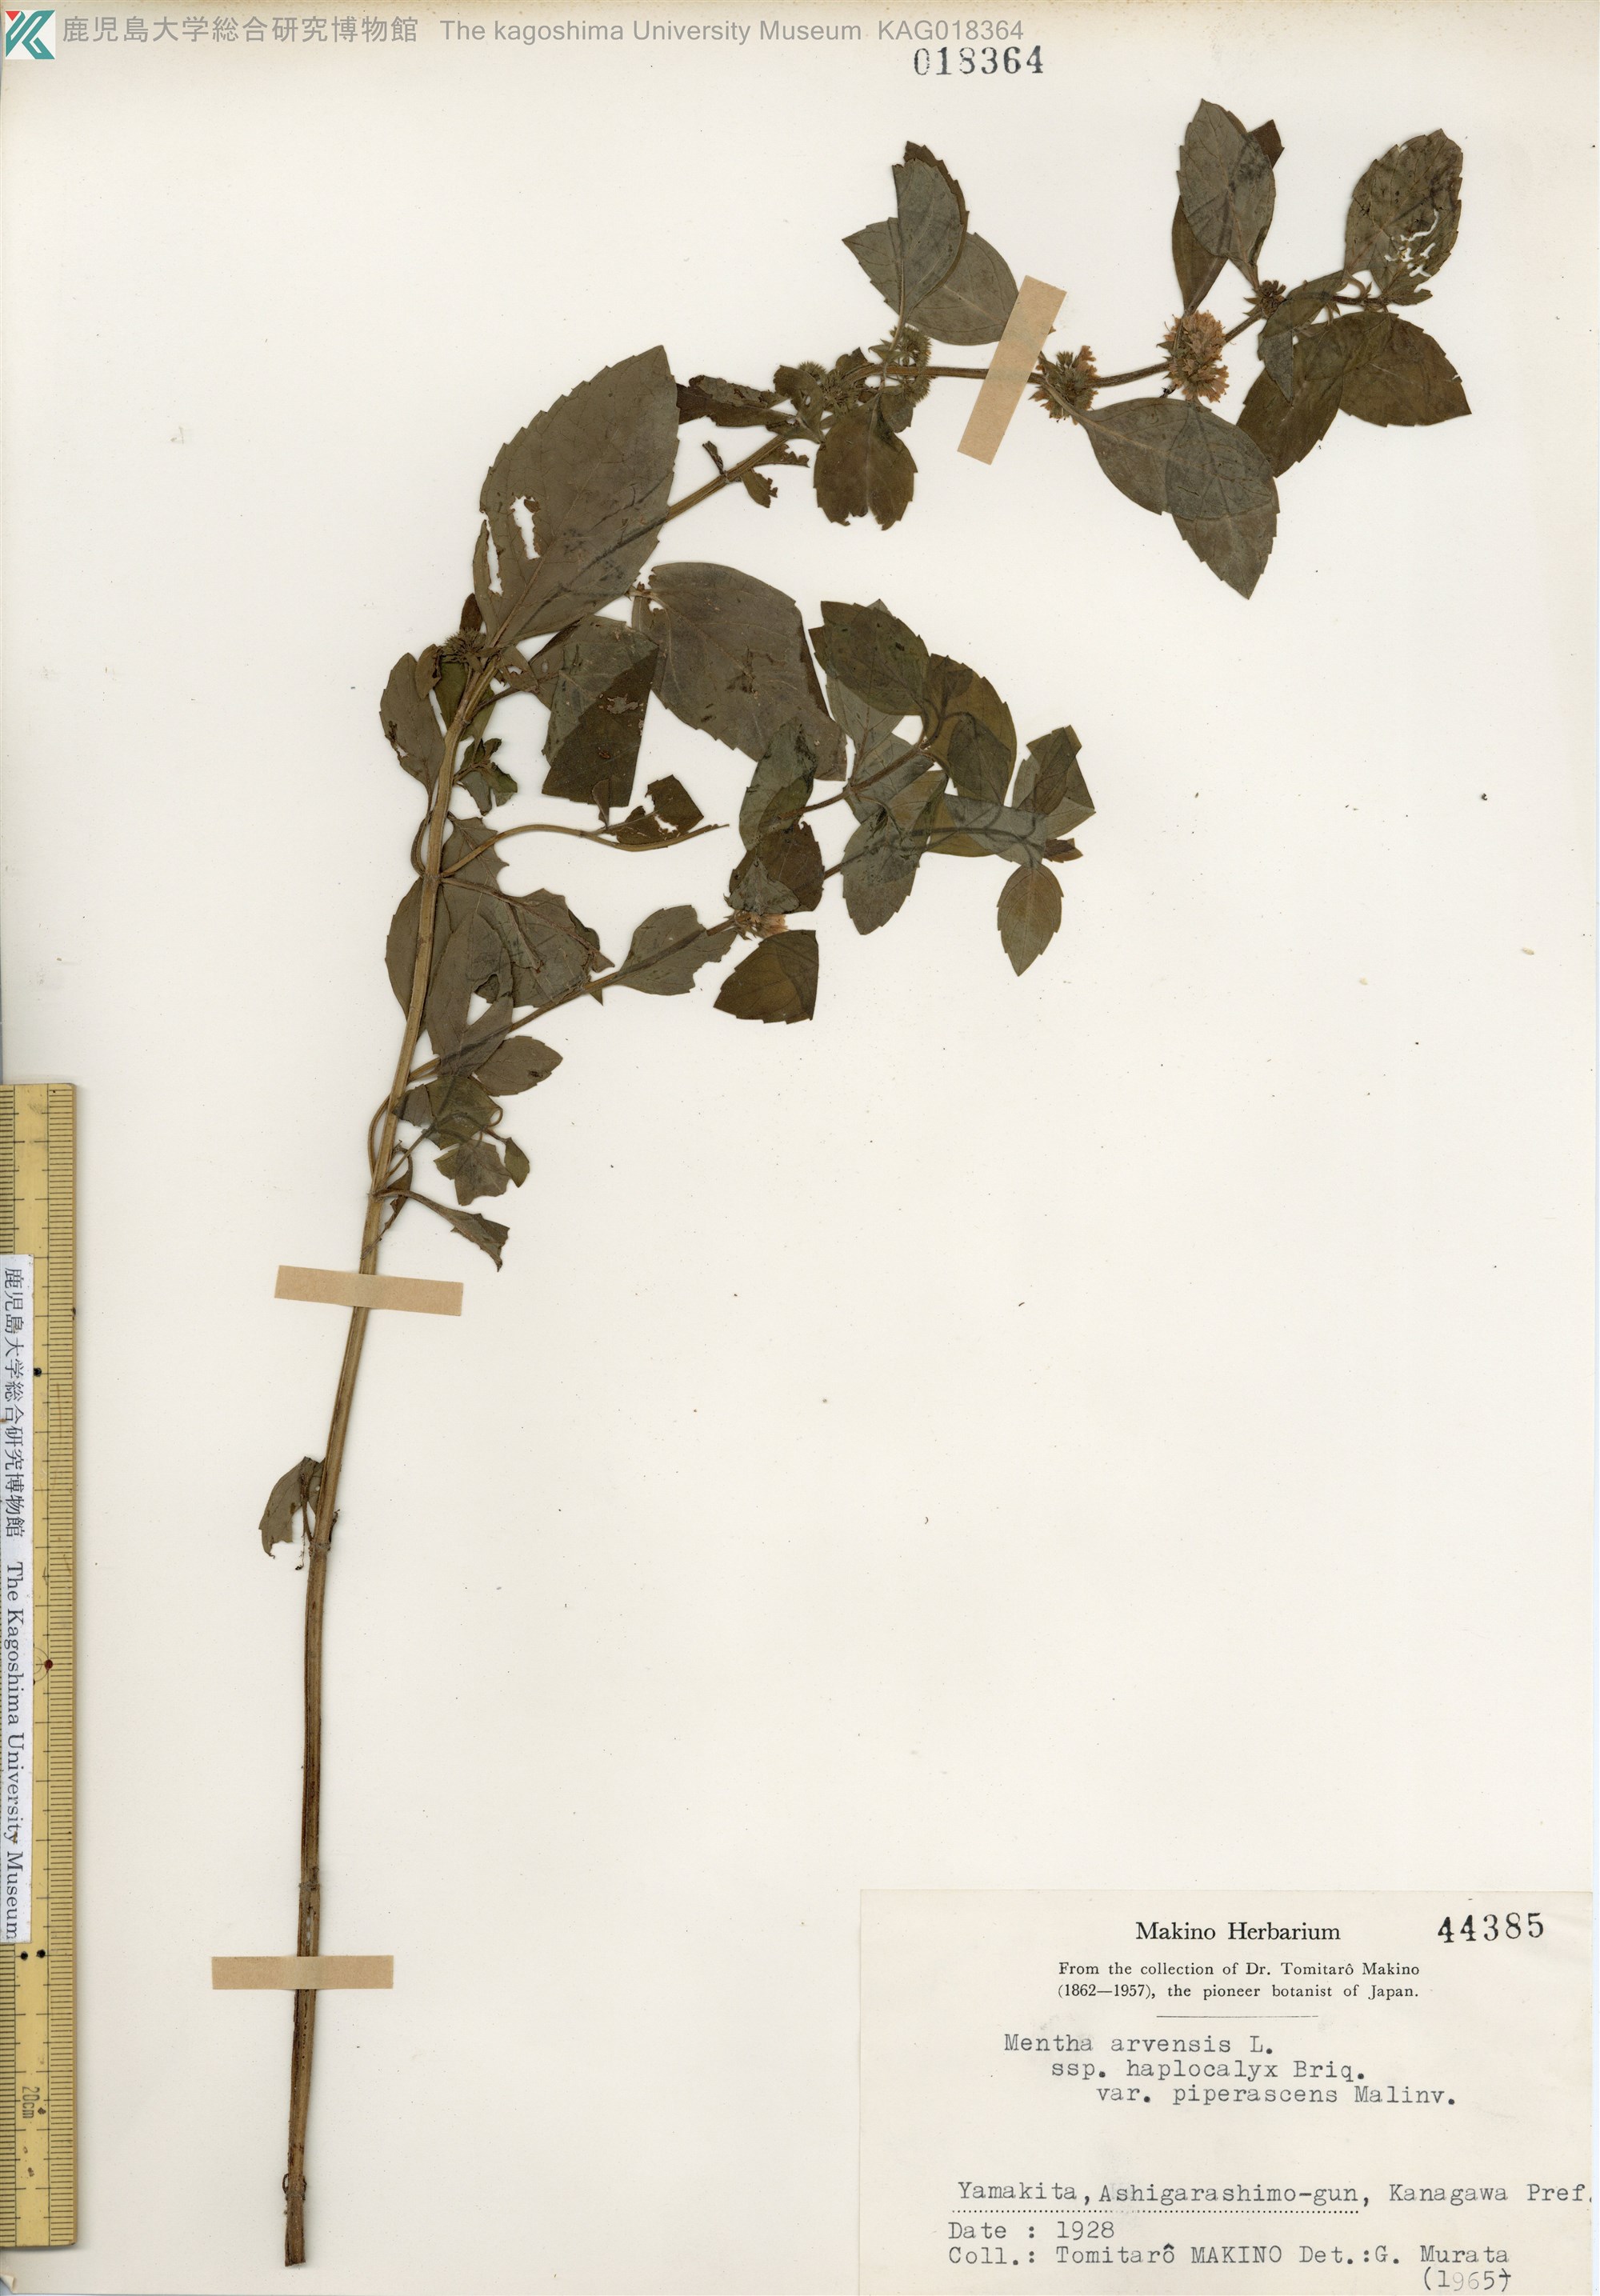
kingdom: Plantae
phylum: Tracheophyta
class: Magnoliopsida
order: Lamiales
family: Lamiaceae
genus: Mentha
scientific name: Mentha canadensis
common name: ハッカ
